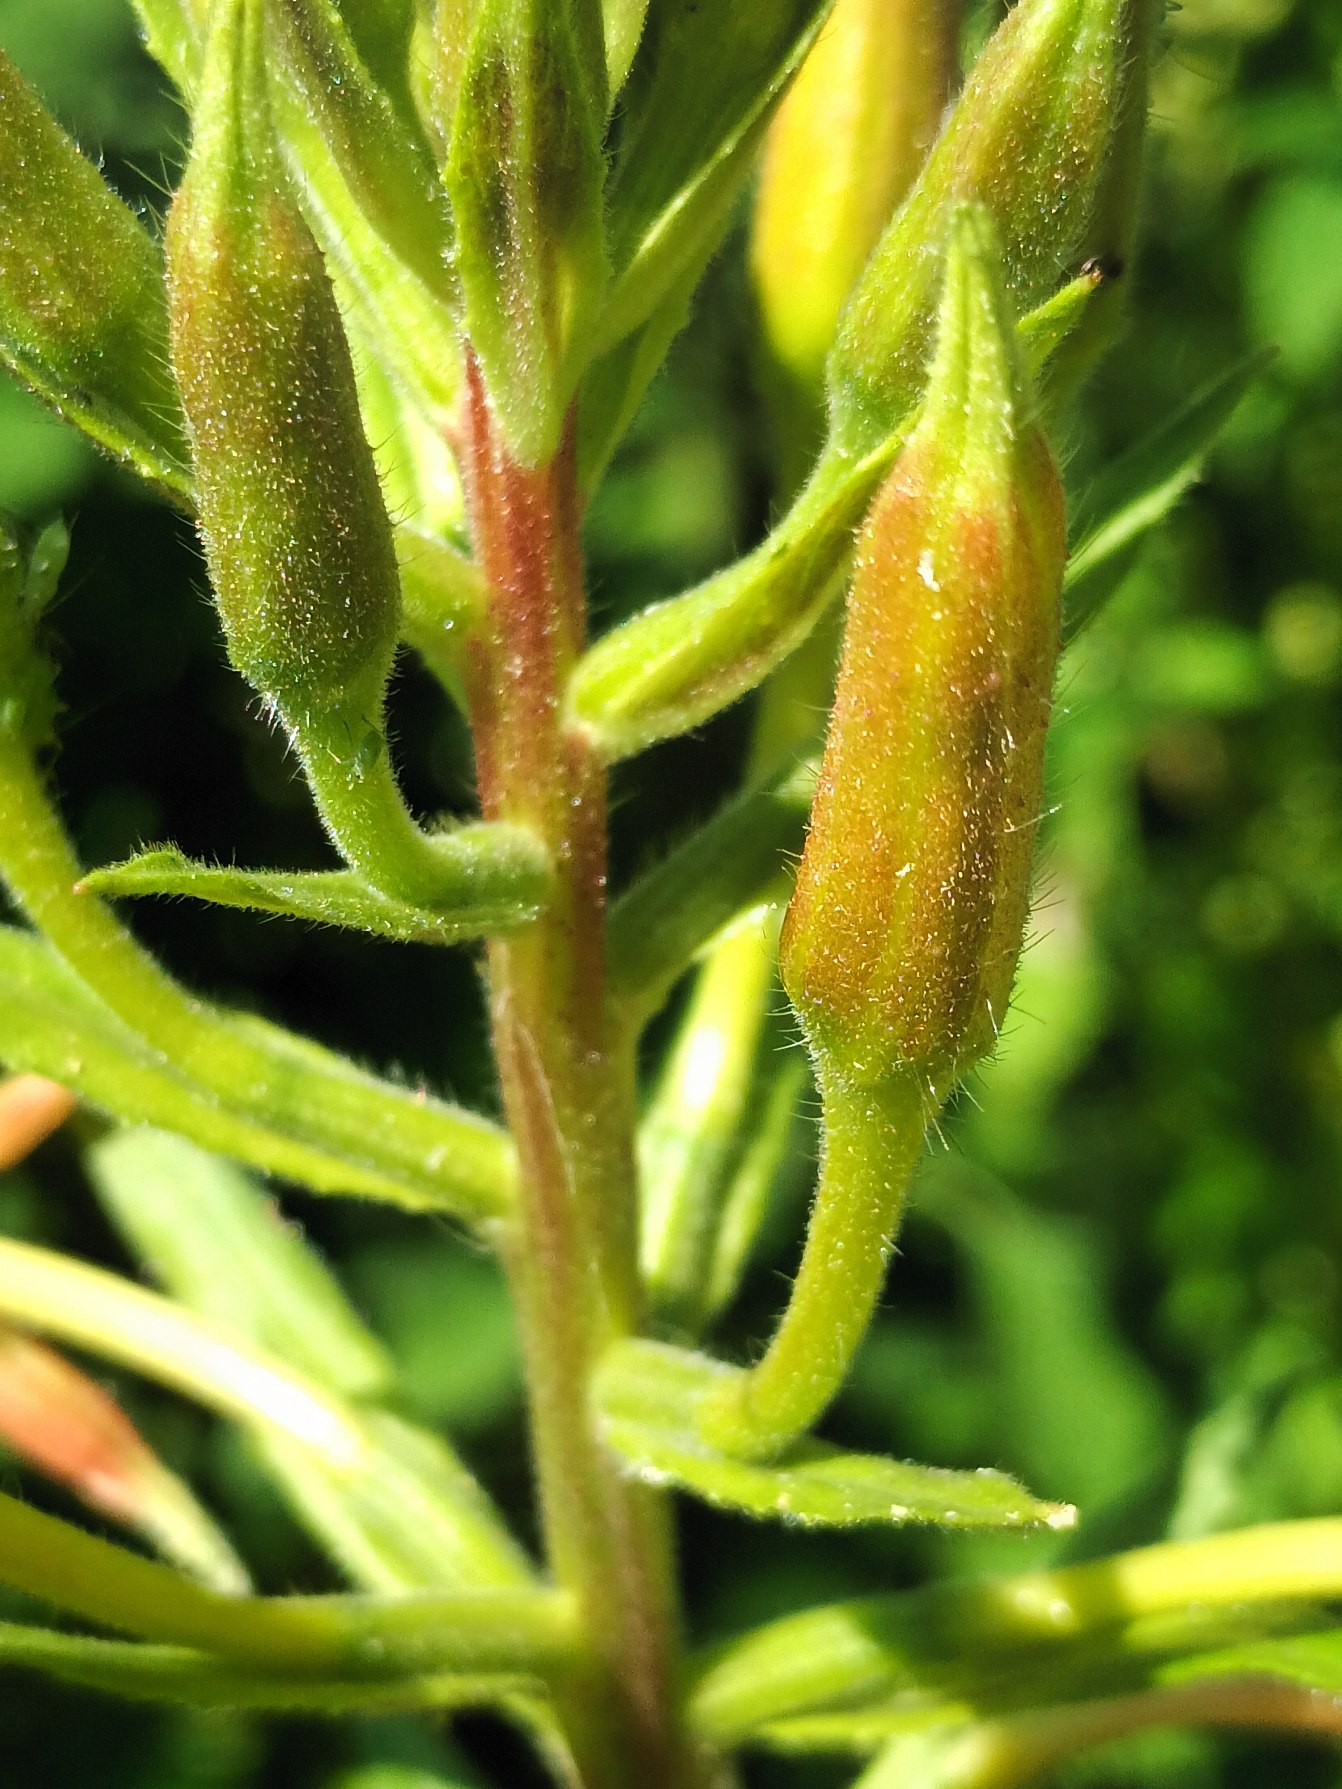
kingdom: Plantae
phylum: Tracheophyta
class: Magnoliopsida
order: Myrtales
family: Onagraceae
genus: Oenothera
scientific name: Oenothera
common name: Natlysslægten
